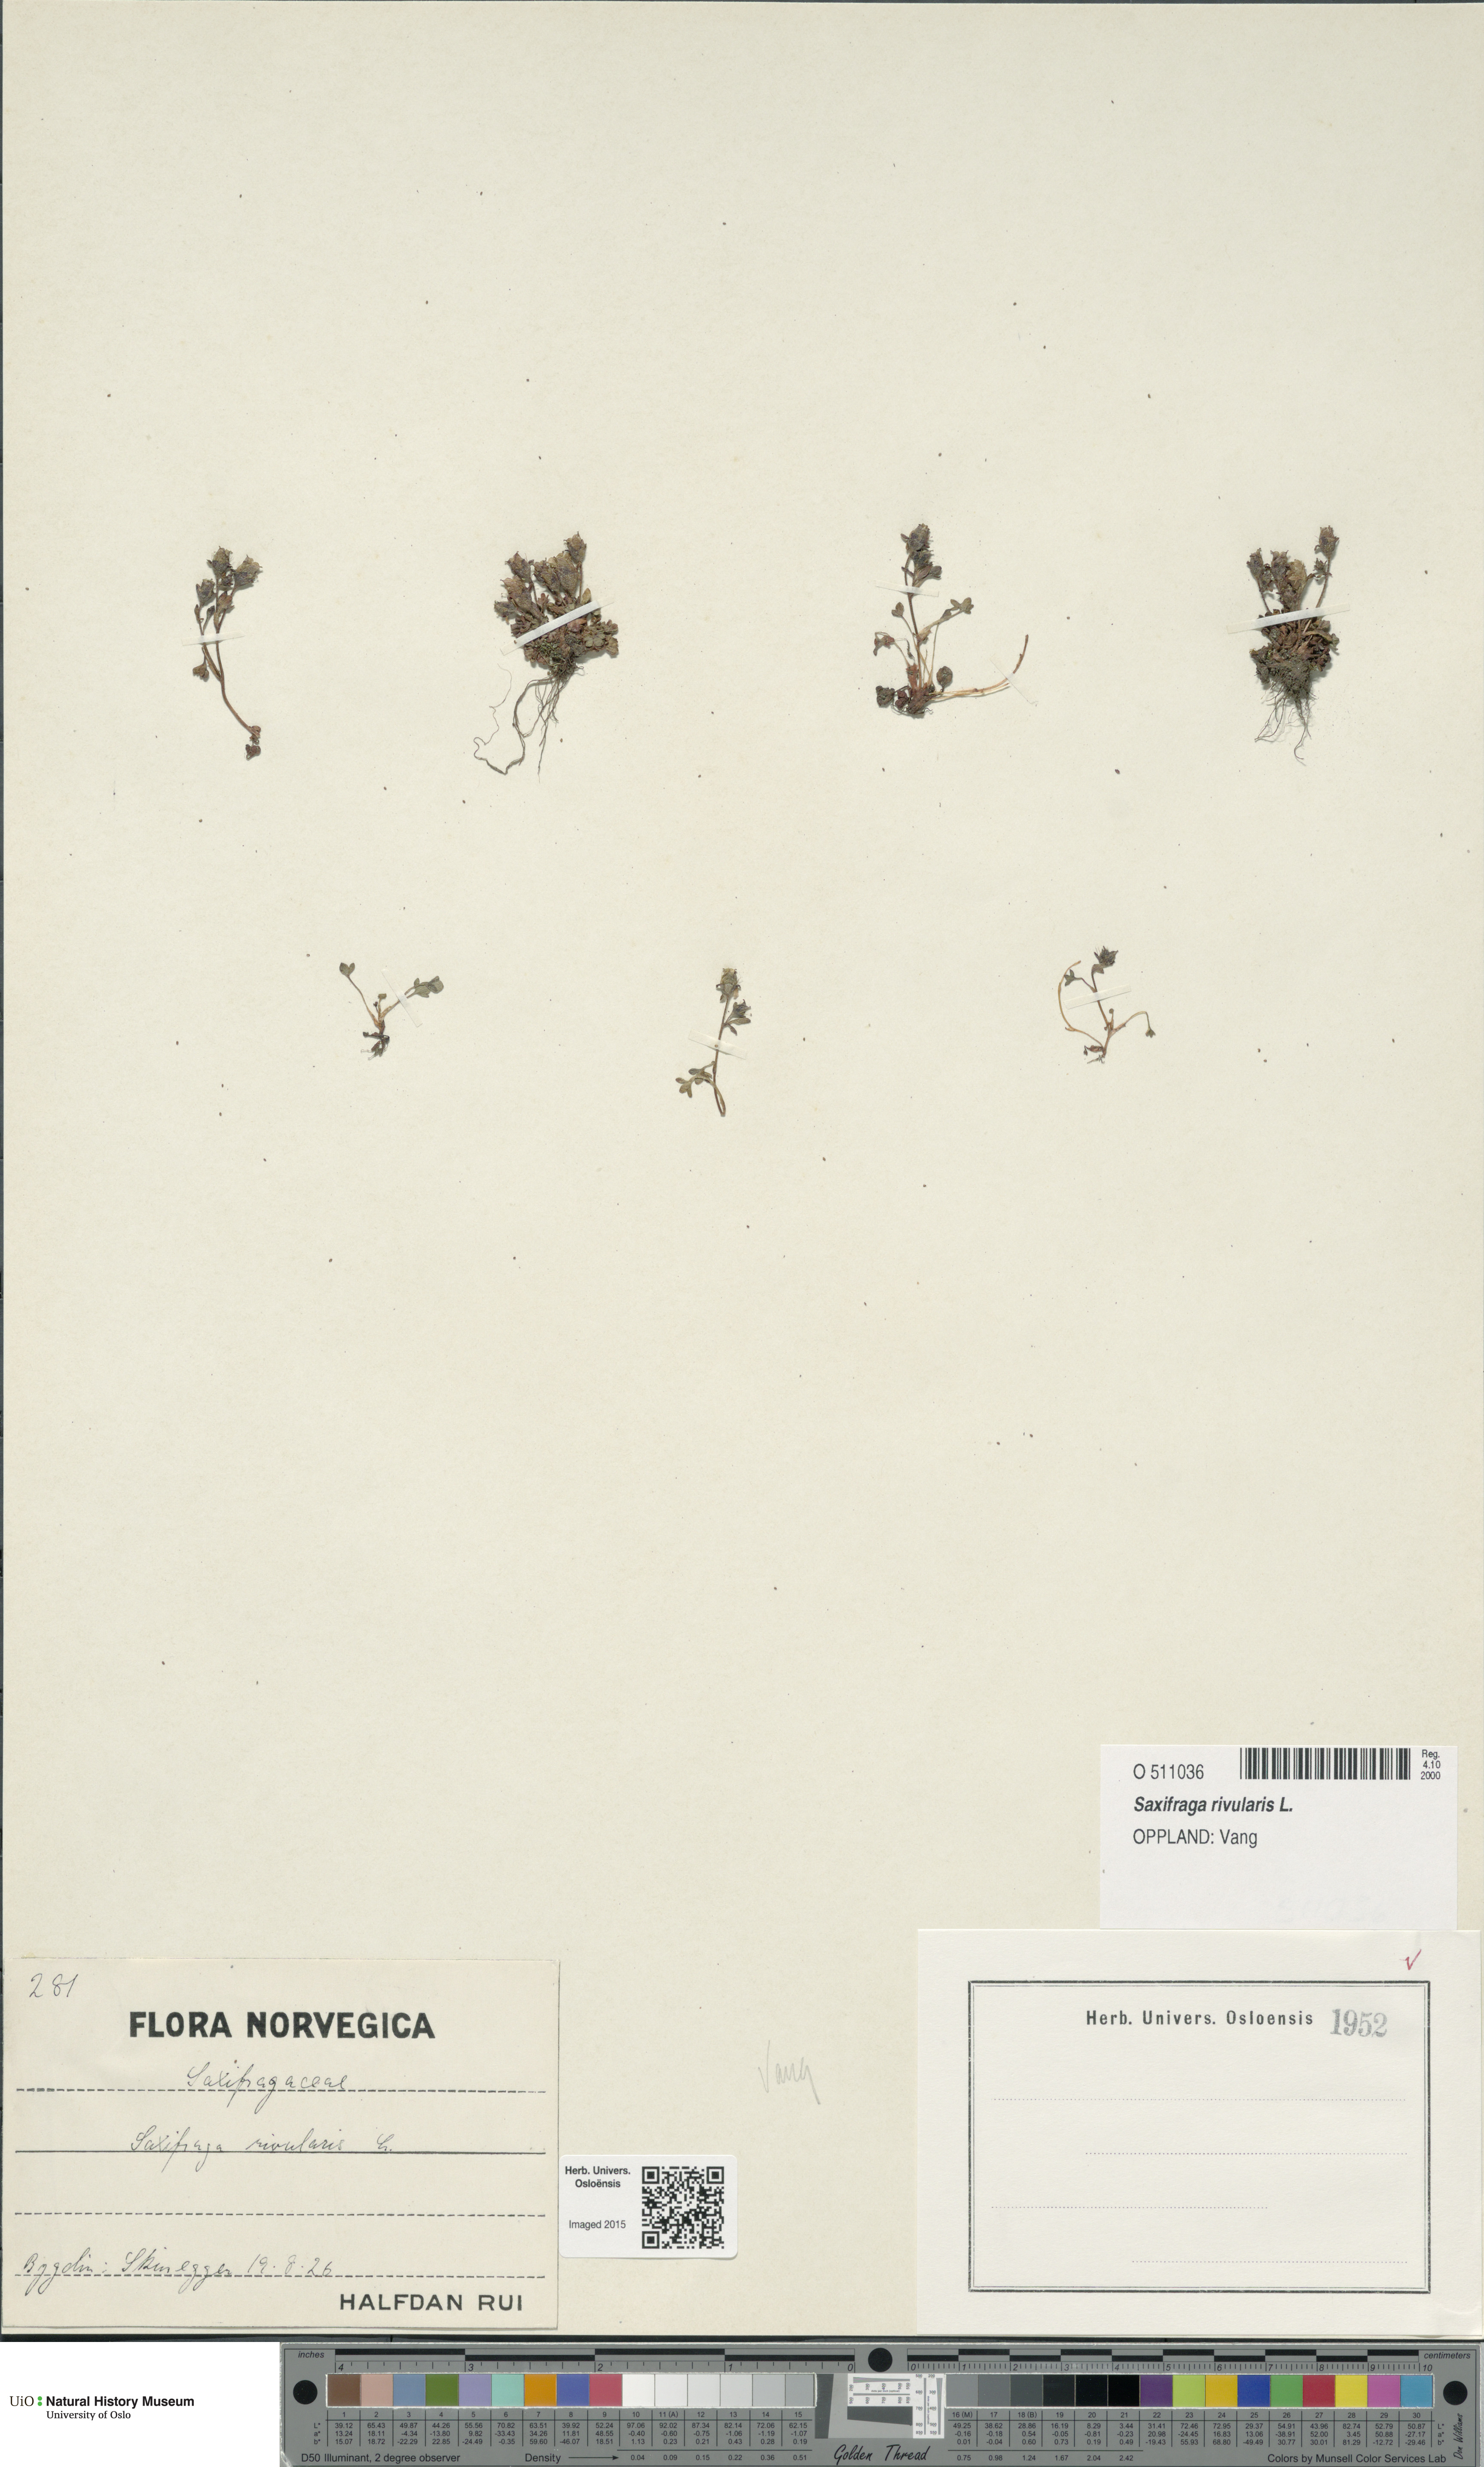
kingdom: Plantae
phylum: Tracheophyta
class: Magnoliopsida
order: Saxifragales
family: Saxifragaceae
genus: Saxifraga
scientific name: Saxifraga rivularis
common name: Highland saxifrage
